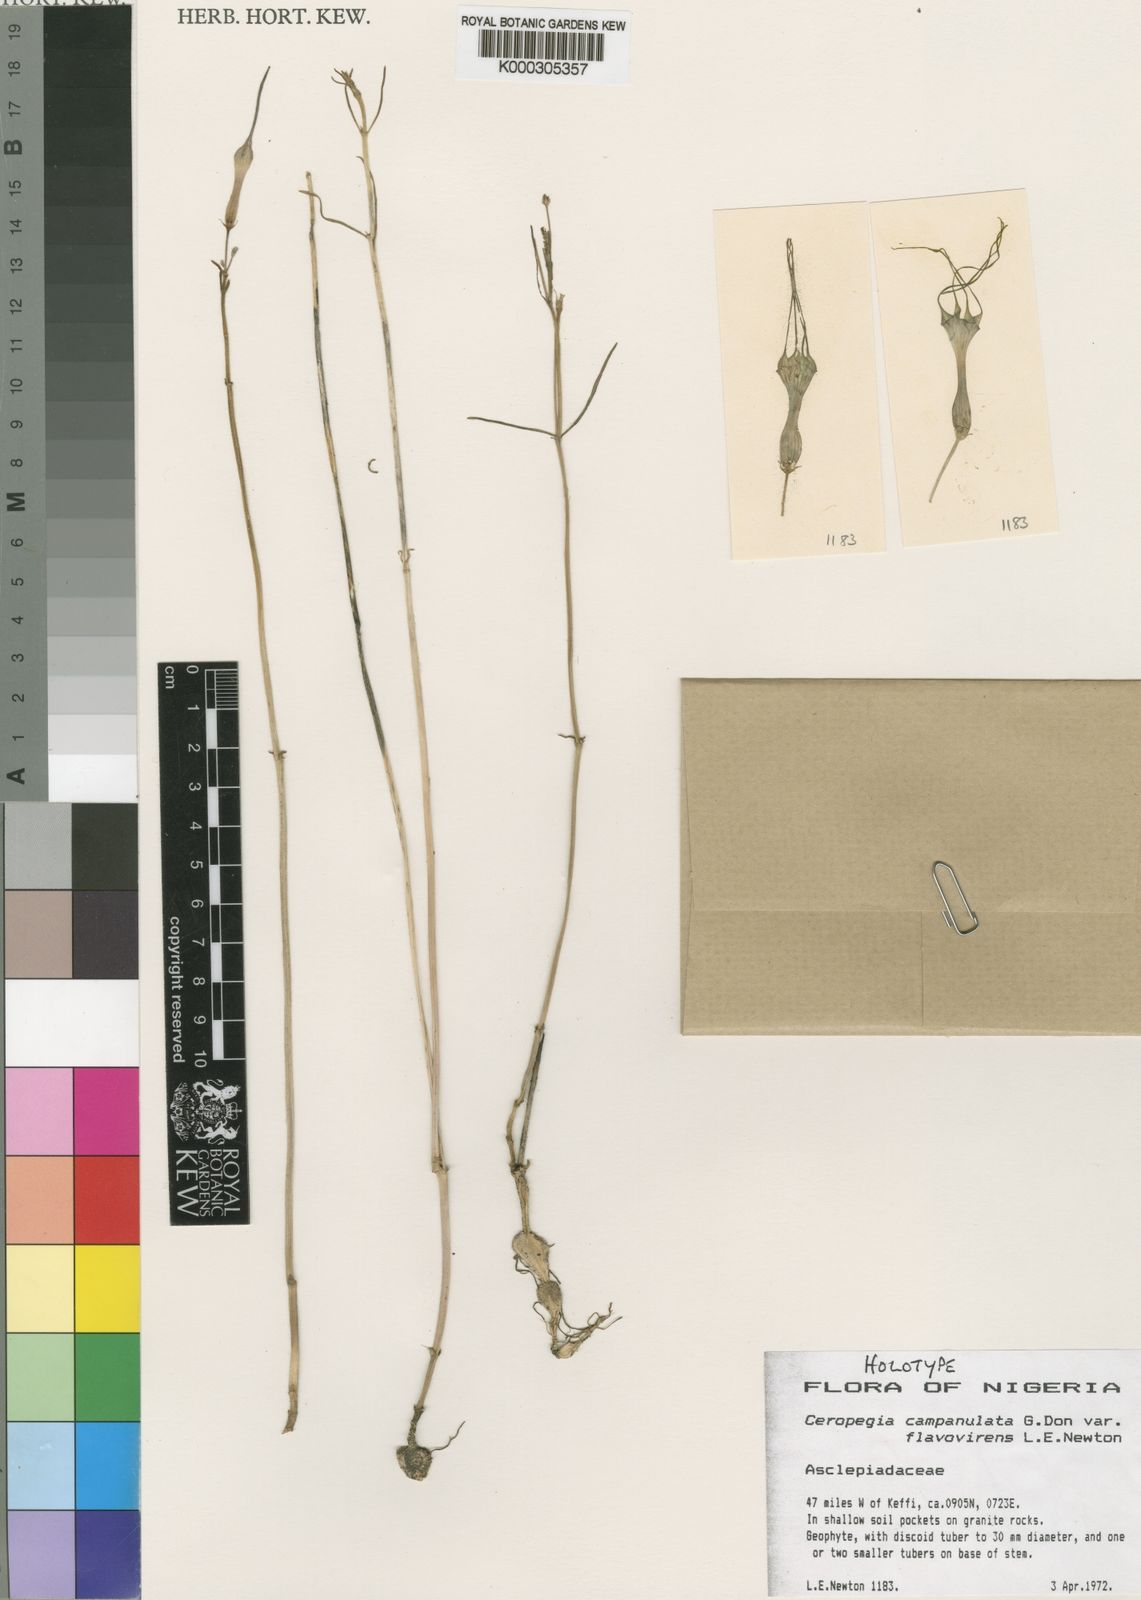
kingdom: Plantae
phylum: Tracheophyta
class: Magnoliopsida
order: Gentianales
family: Apocynaceae
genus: Ceropegia
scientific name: Ceropegia campanulata
